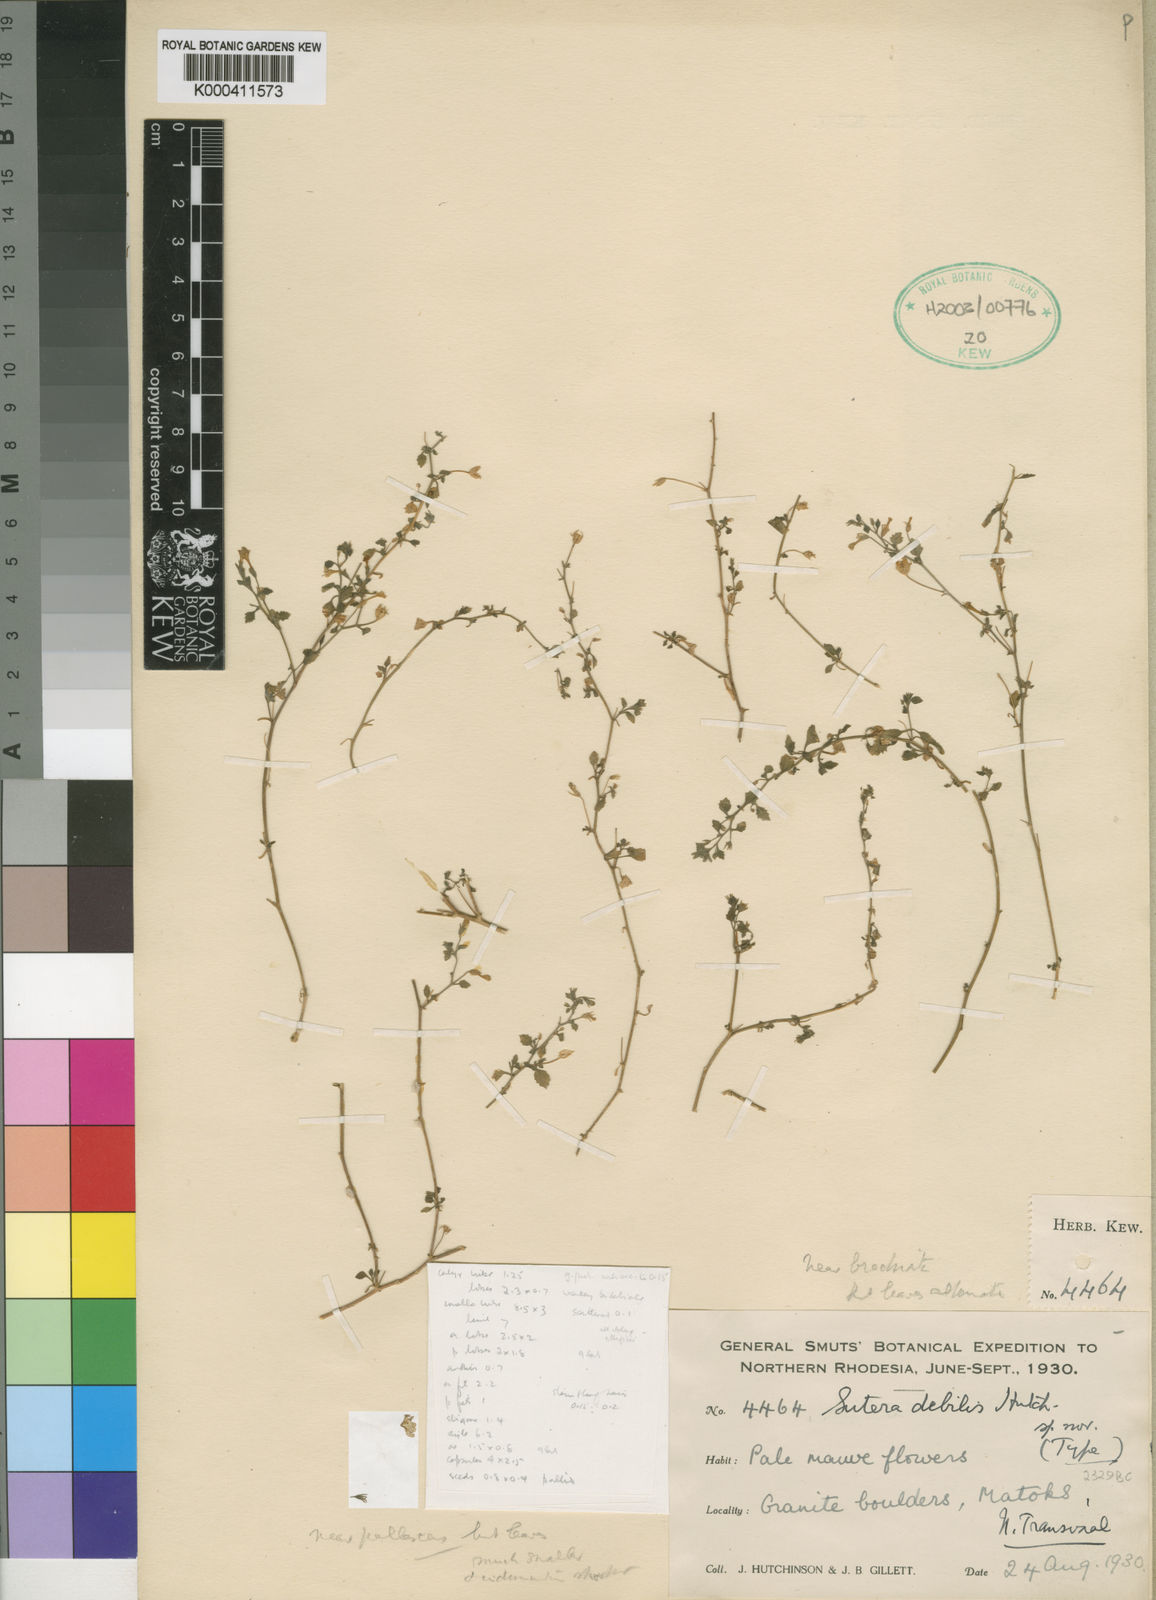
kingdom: Plantae
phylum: Tracheophyta
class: Magnoliopsida
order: Lamiales
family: Scrophulariaceae
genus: Chaenostoma
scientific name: Chaenostoma debile
